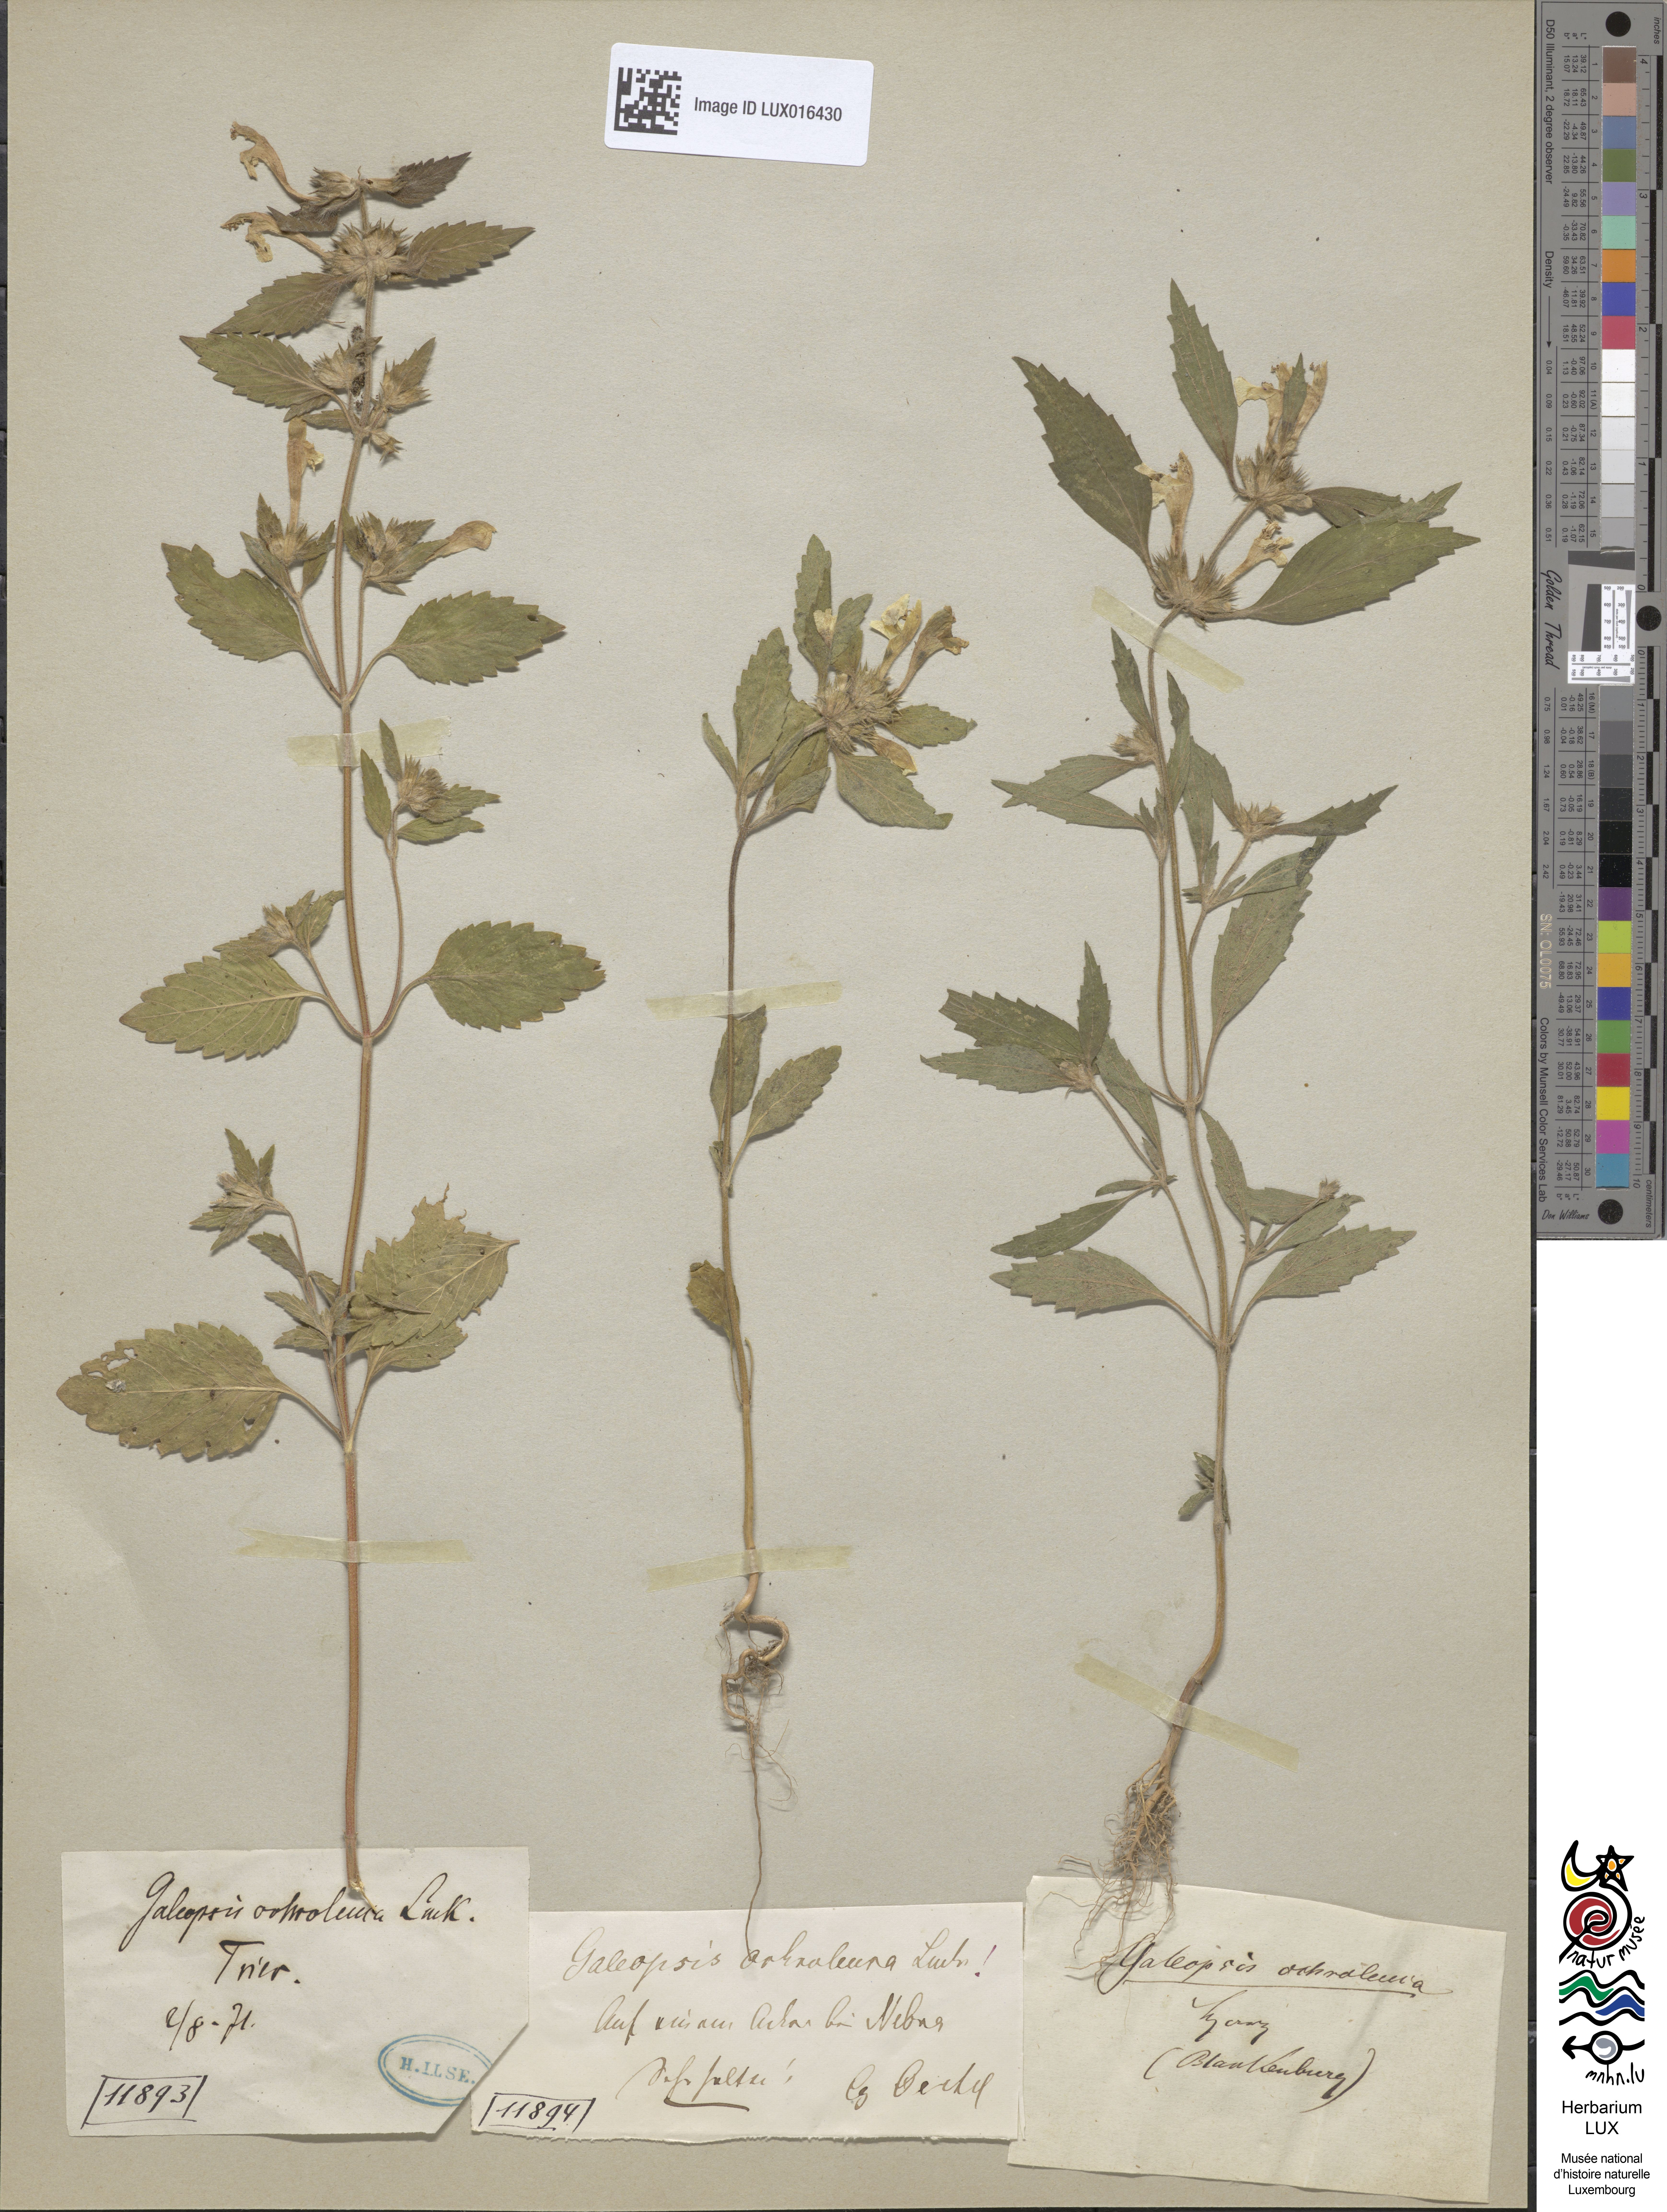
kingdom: Plantae
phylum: Tracheophyta
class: Magnoliopsida
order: Lamiales
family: Lamiaceae
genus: Galeopsis
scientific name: Galeopsis segetum
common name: Downy hemp-nettle
